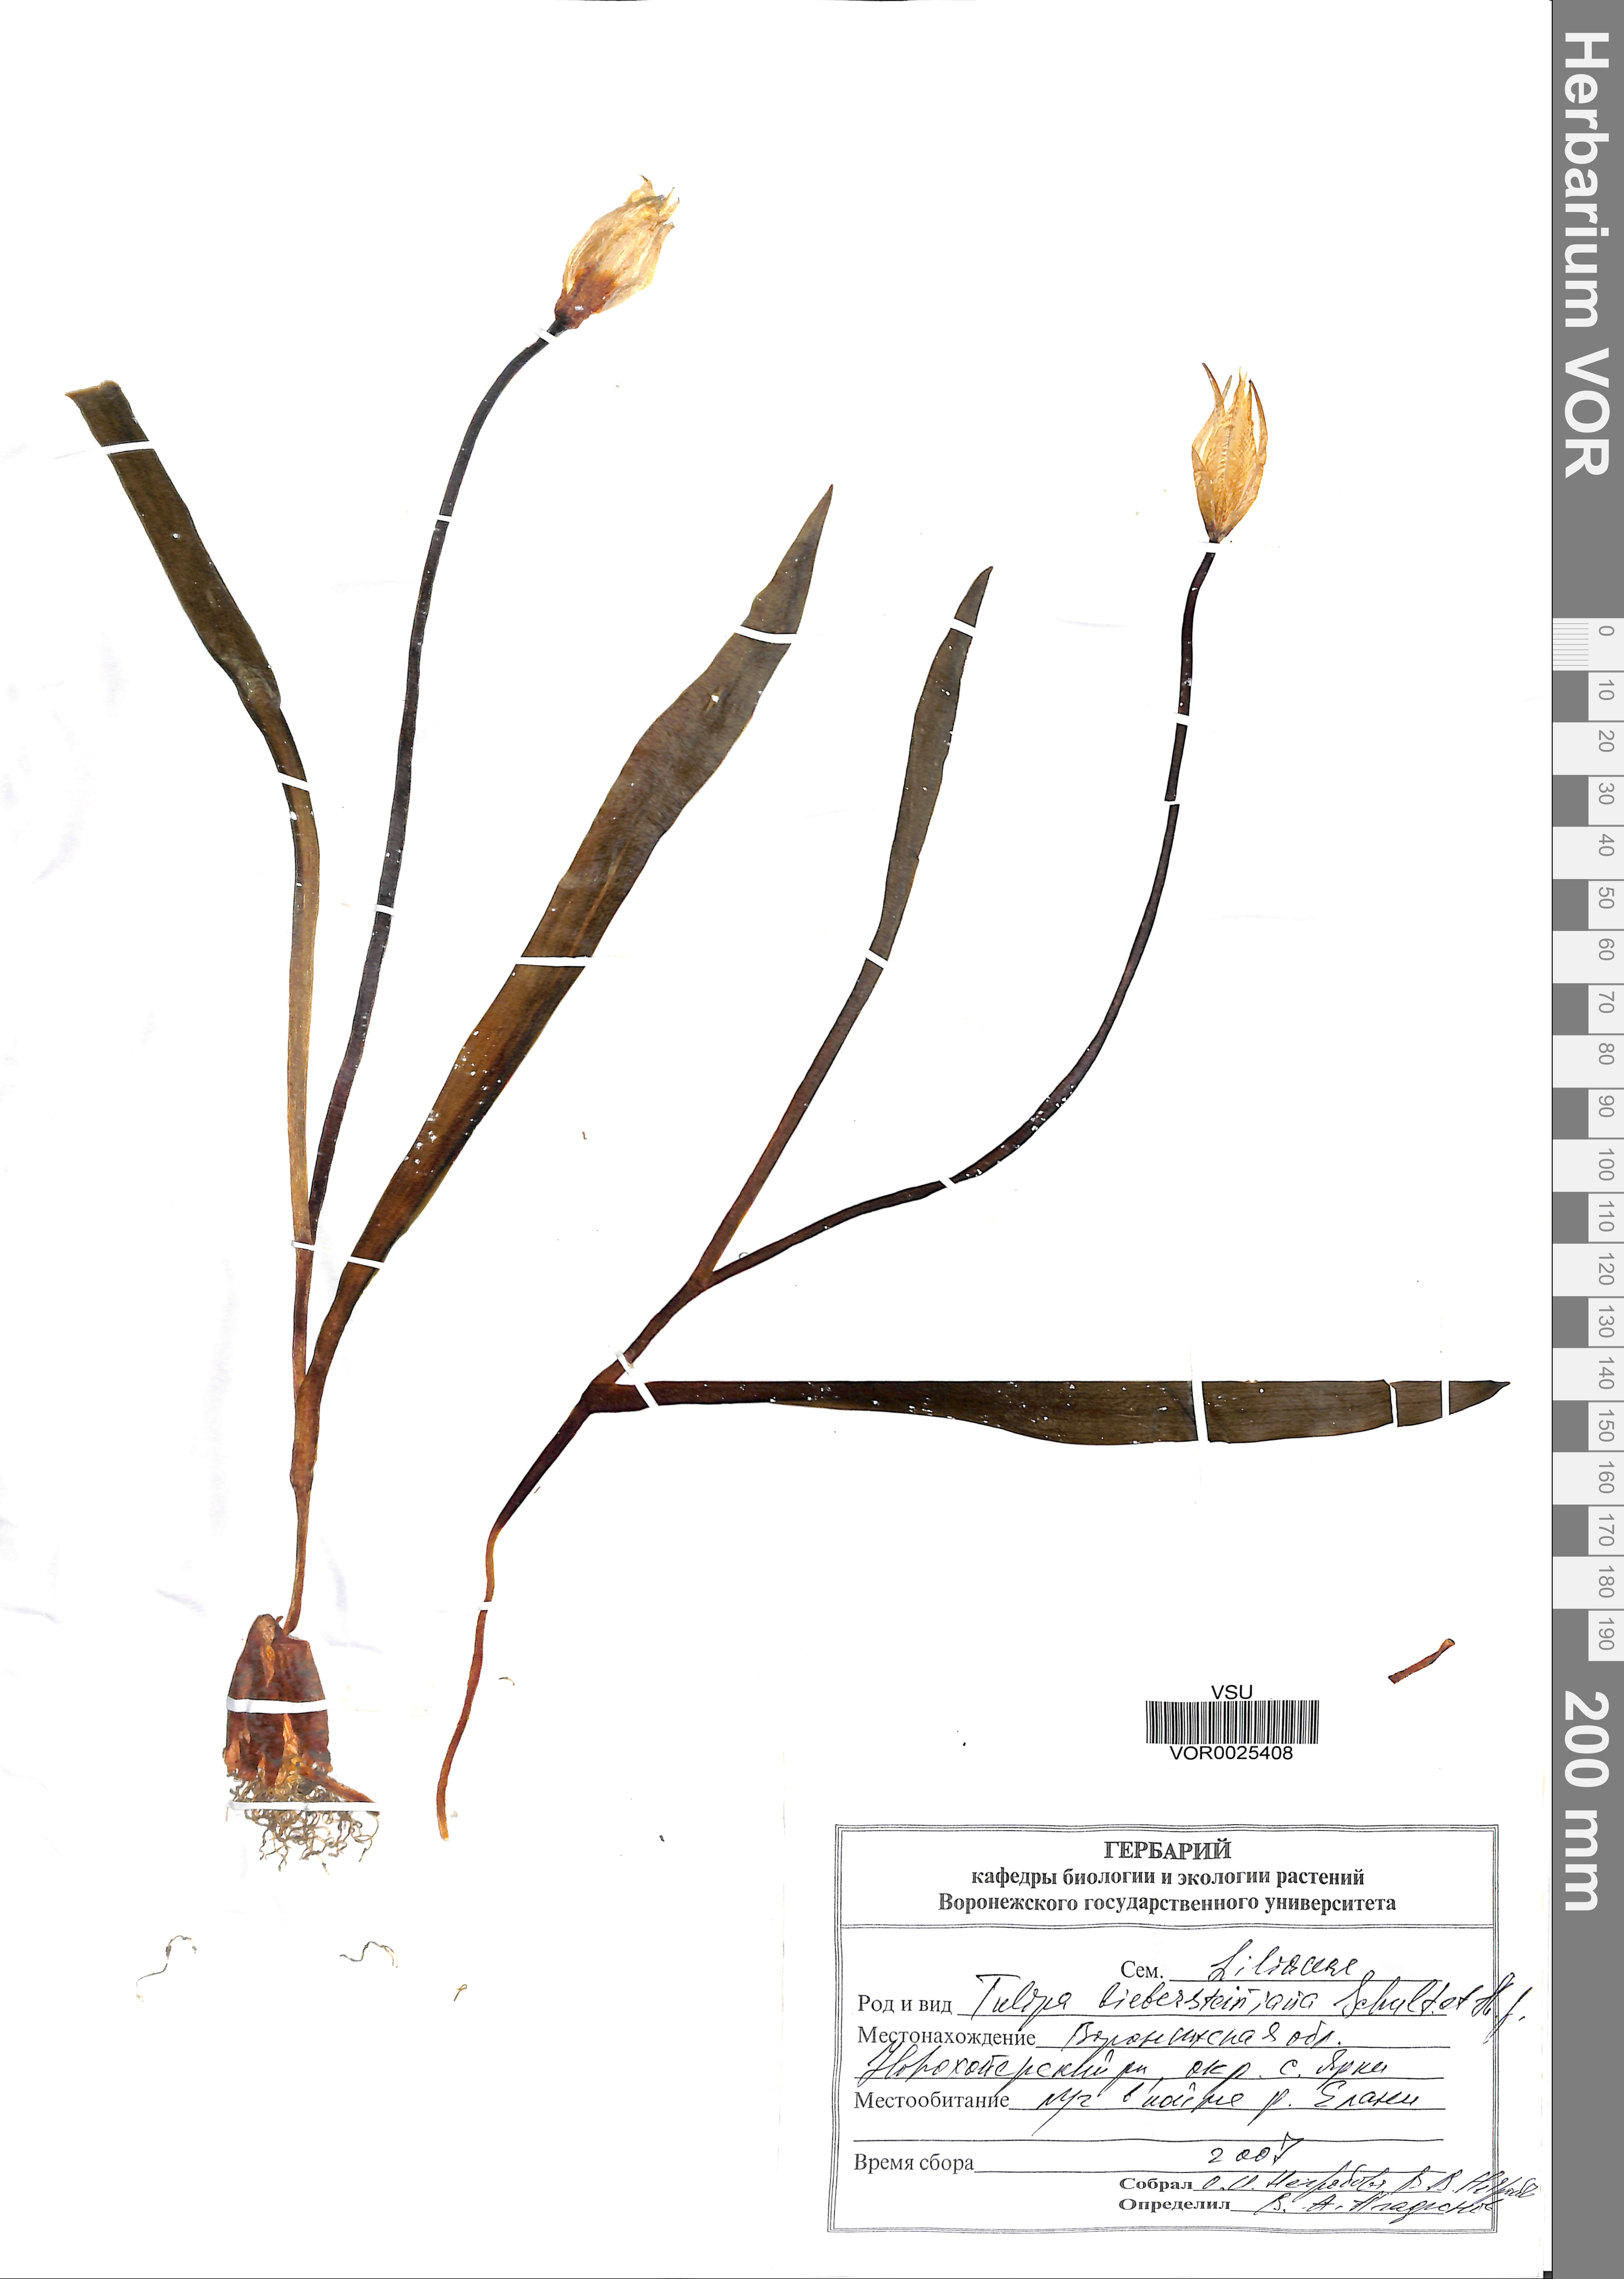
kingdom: Plantae
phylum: Tracheophyta
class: Liliopsida
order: Liliales
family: Liliaceae
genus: Tulipa
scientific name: Tulipa sylvestris
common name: Wild tulip
